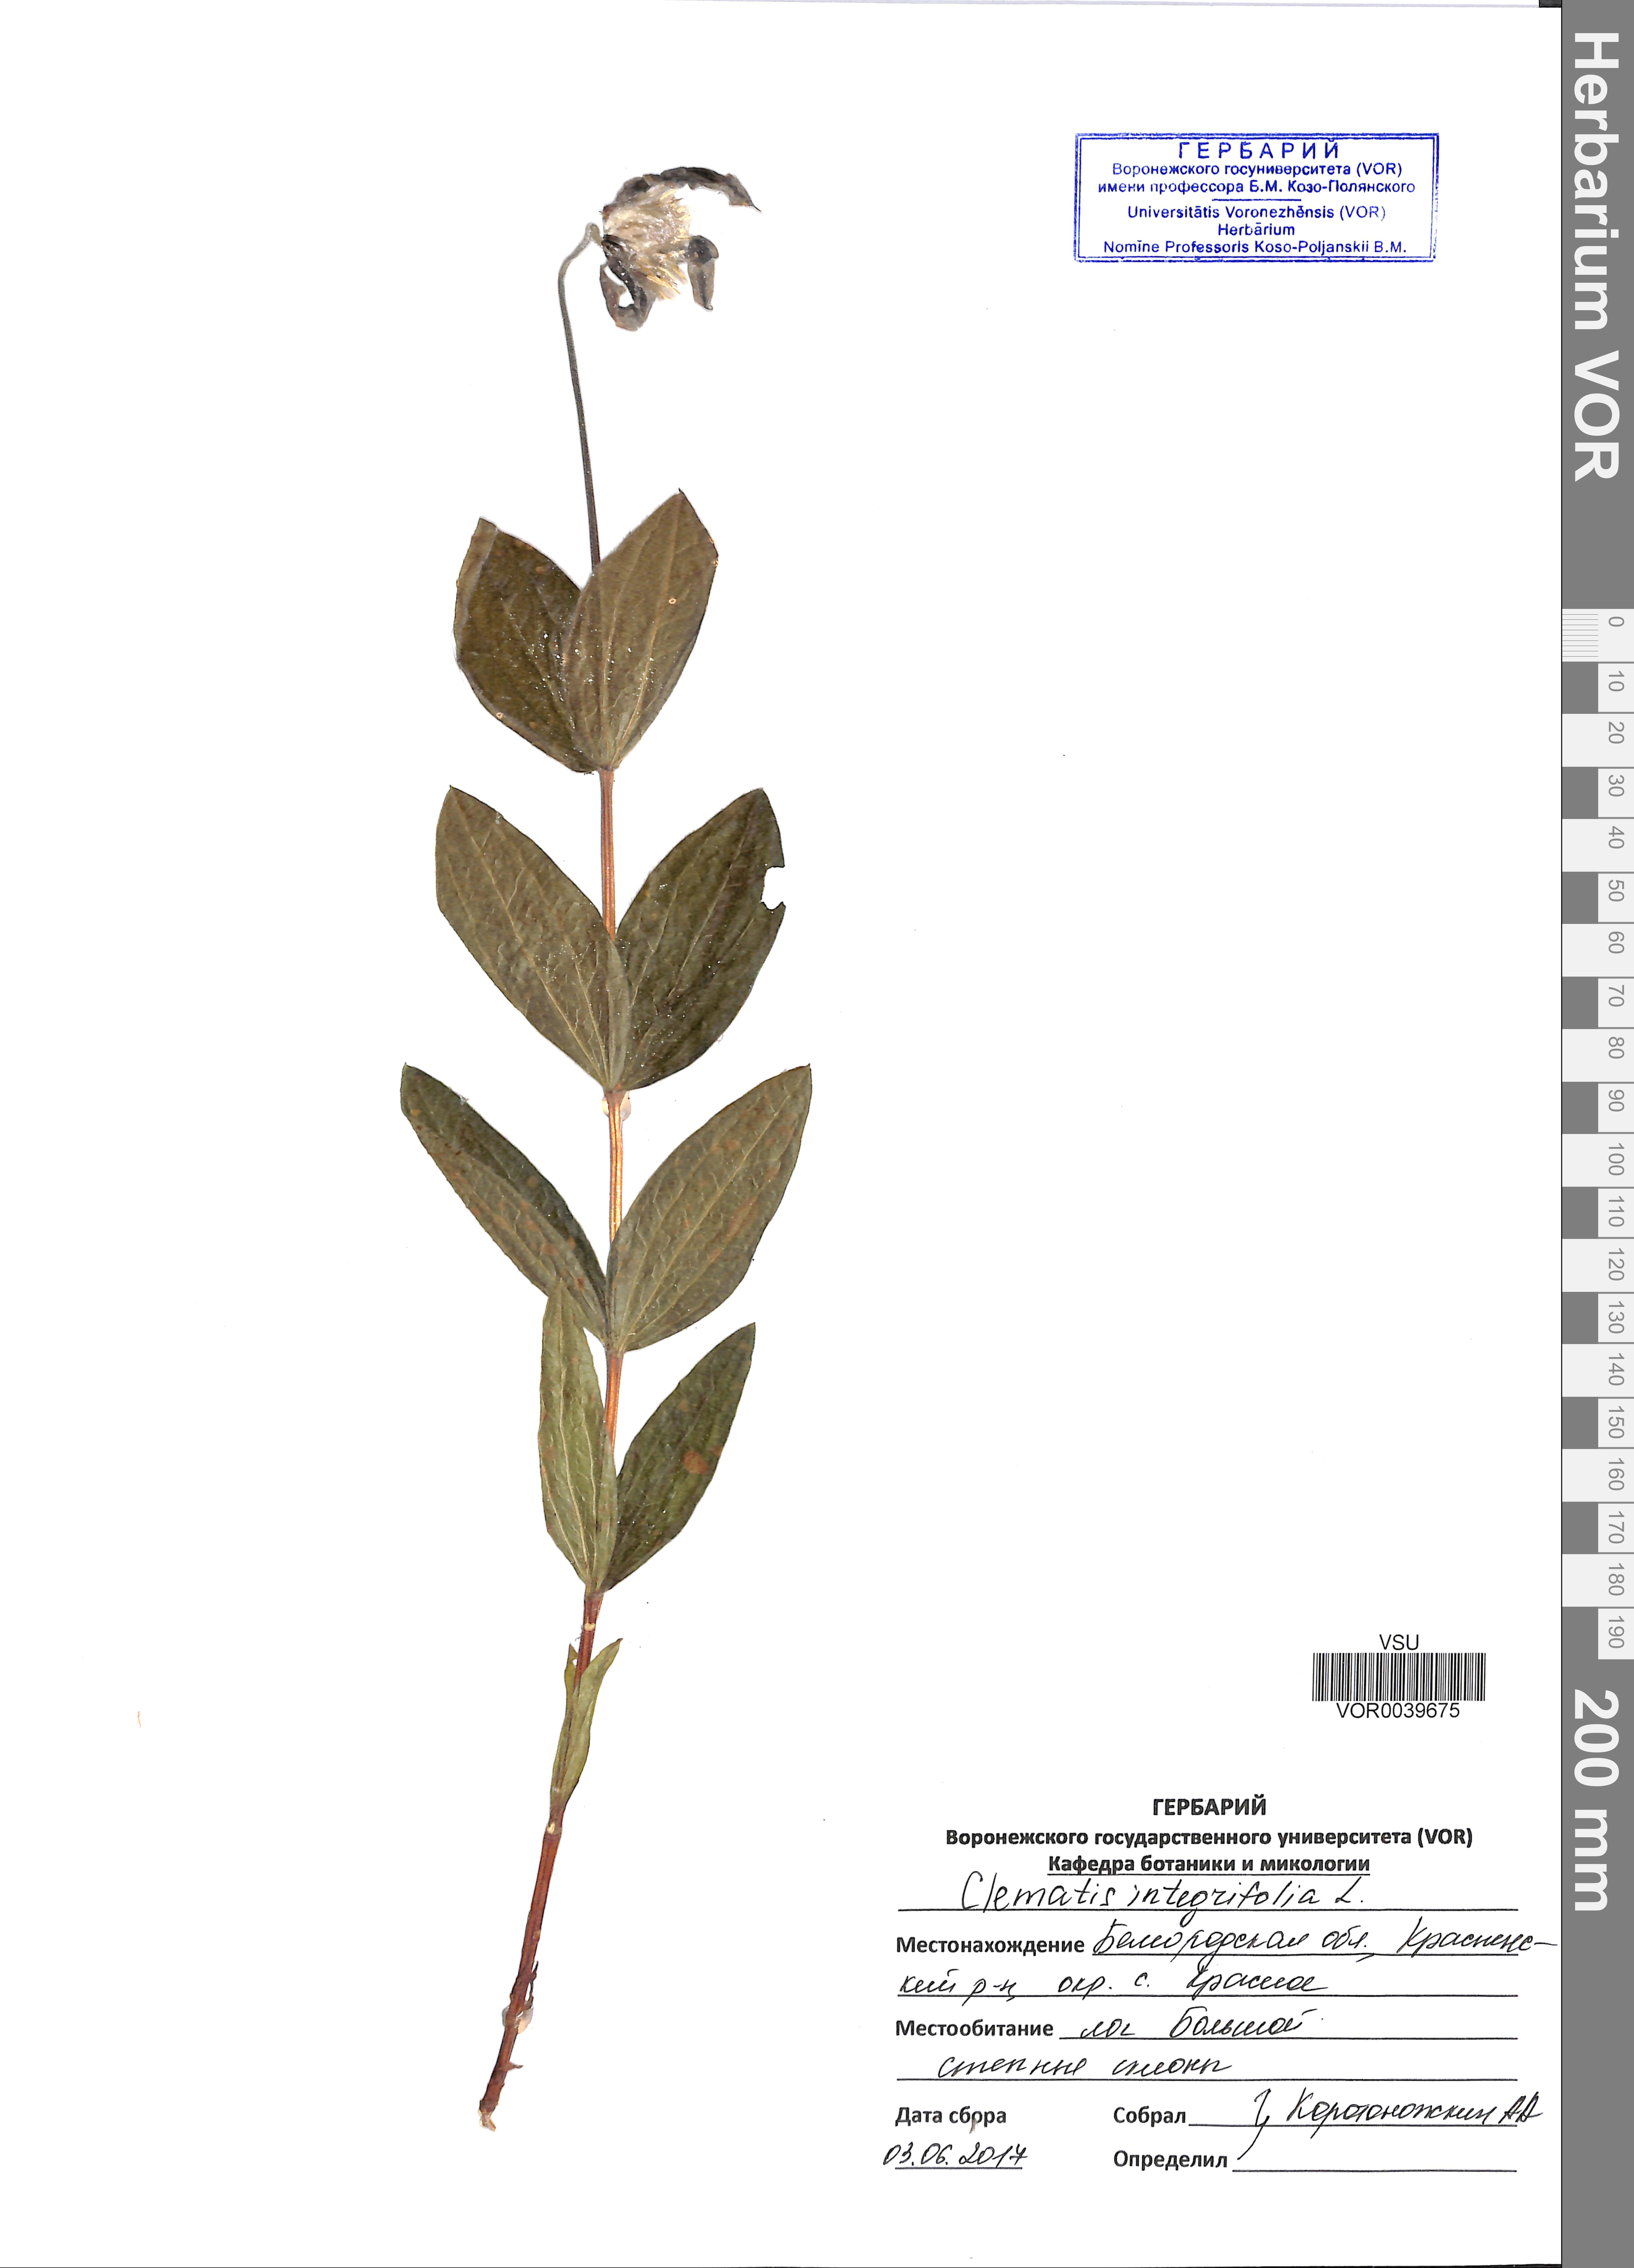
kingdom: Plantae
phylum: Tracheophyta
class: Magnoliopsida
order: Ranunculales
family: Ranunculaceae
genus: Clematis
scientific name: Clematis integrifolia
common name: Solitary clematis
